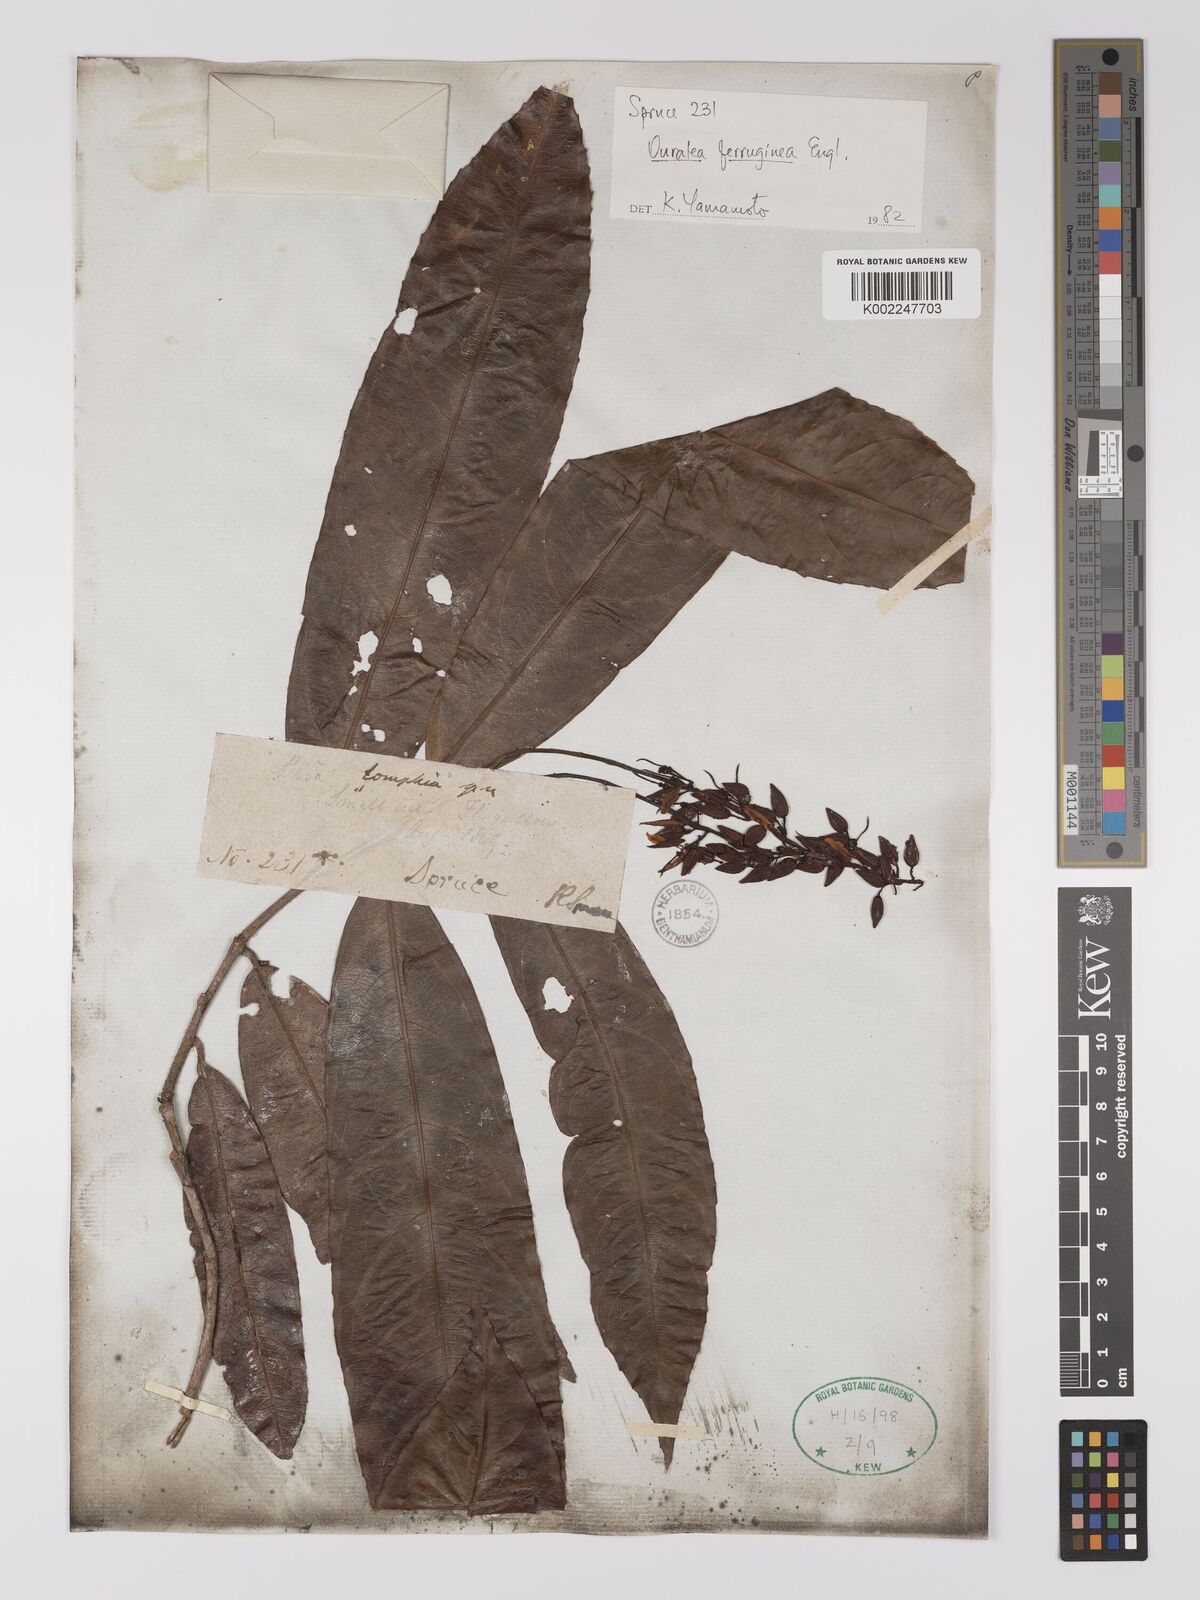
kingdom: Plantae
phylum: Tracheophyta
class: Magnoliopsida
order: Malpighiales
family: Ochnaceae
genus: Ouratea
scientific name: Ouratea ferruginea
